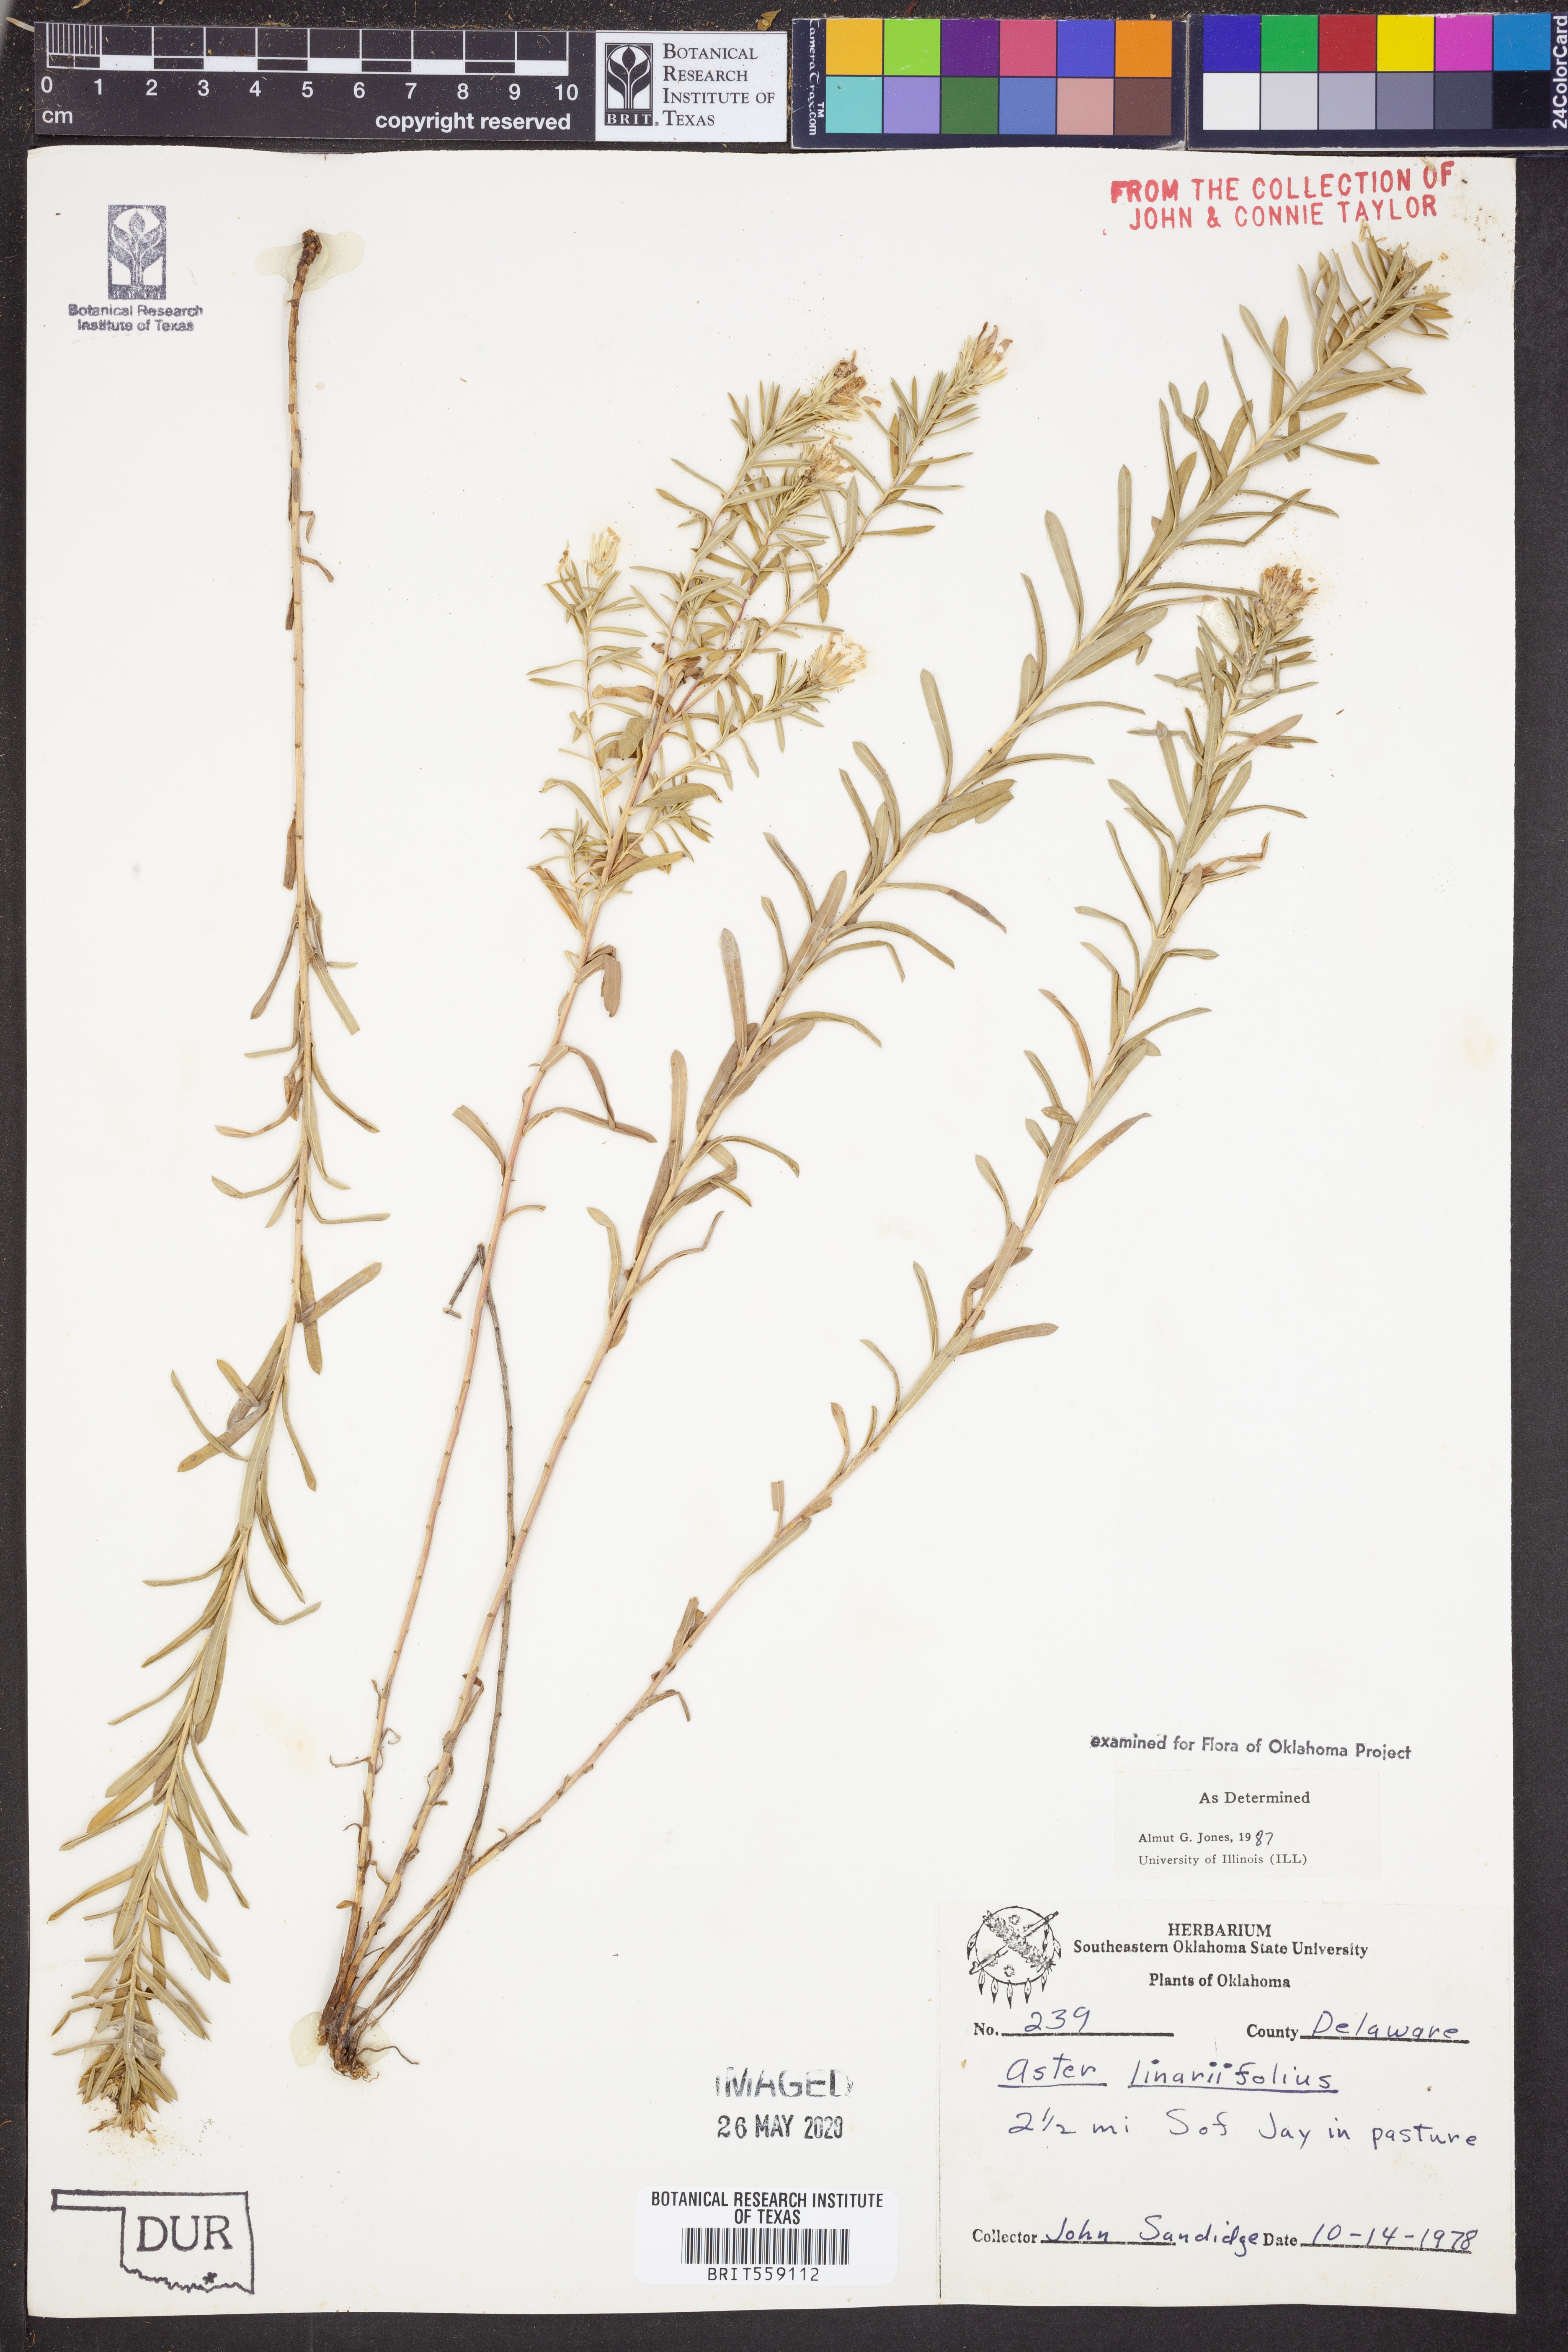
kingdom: Plantae
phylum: Tracheophyta
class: Magnoliopsida
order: Asterales
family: Asteraceae
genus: Ionactis
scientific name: Ionactis linariifolia
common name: Flax-leaf aster
